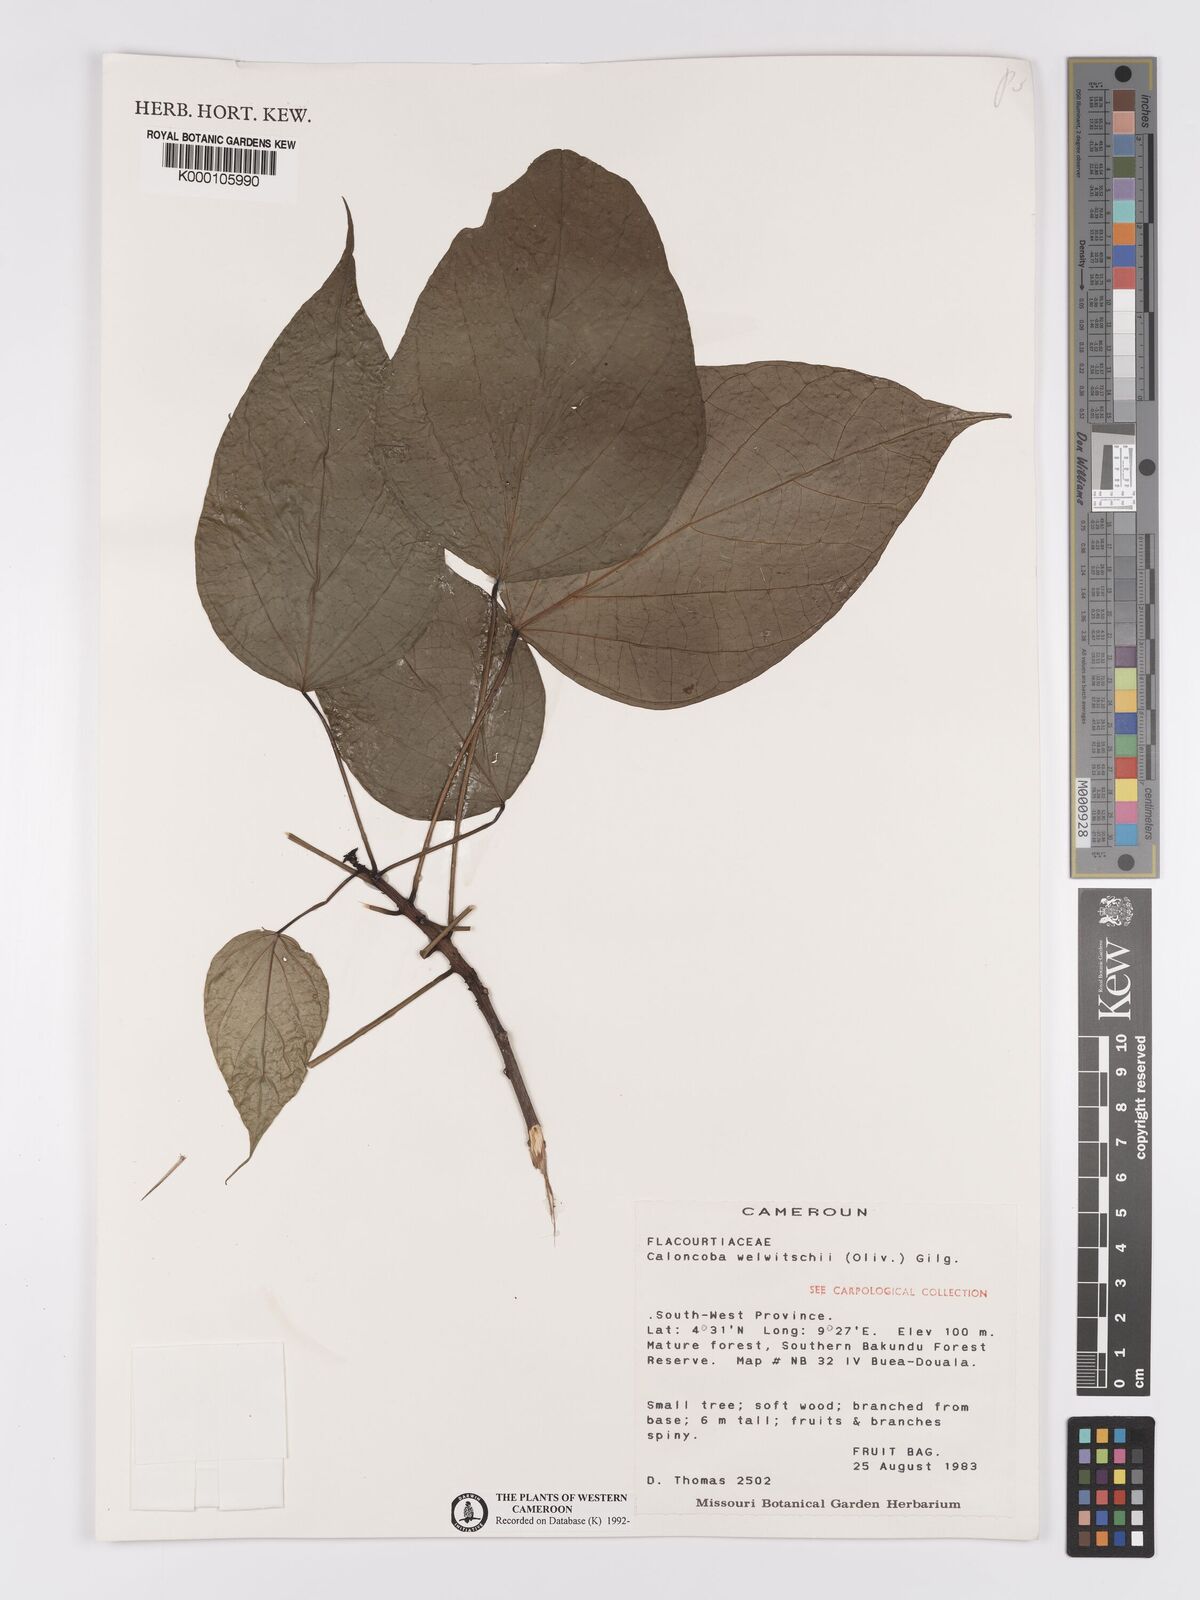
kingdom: Plantae
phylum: Tracheophyta
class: Magnoliopsida
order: Malpighiales
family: Achariaceae
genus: Caloncoba
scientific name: Caloncoba welwitschii
